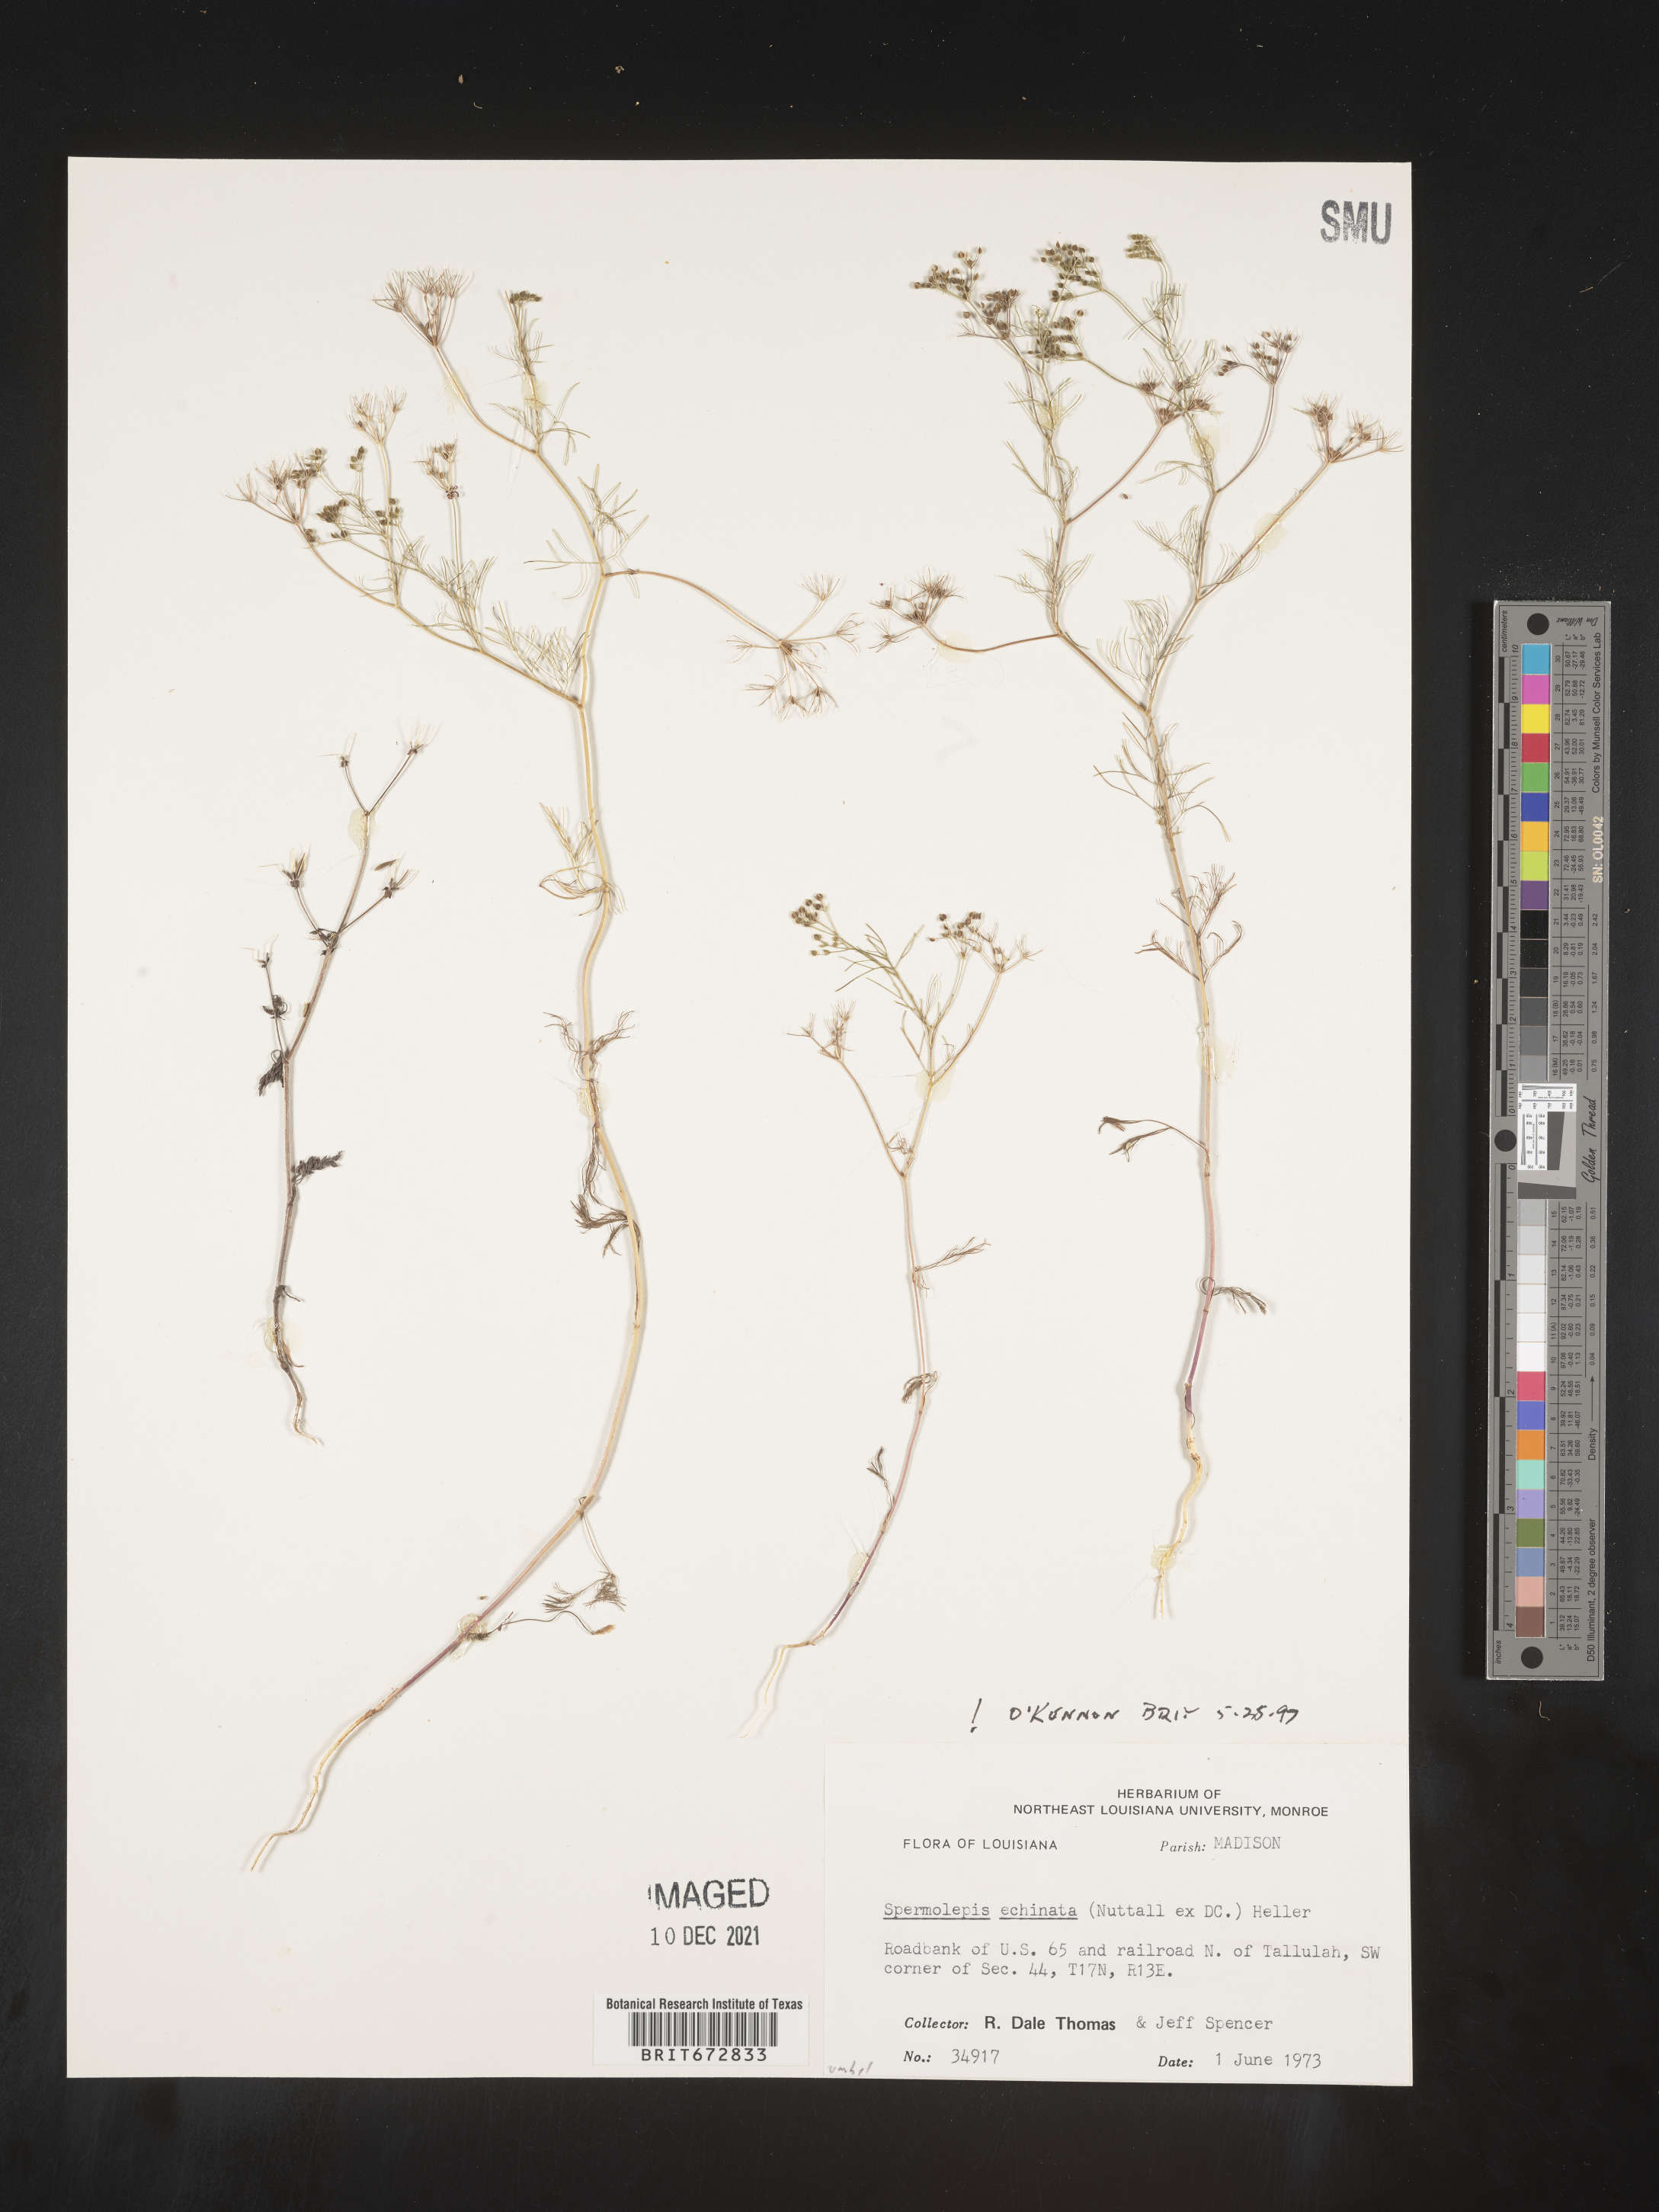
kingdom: Plantae
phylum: Tracheophyta
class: Magnoliopsida
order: Apiales
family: Apiaceae
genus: Spermolepis
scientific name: Spermolepis echinata
